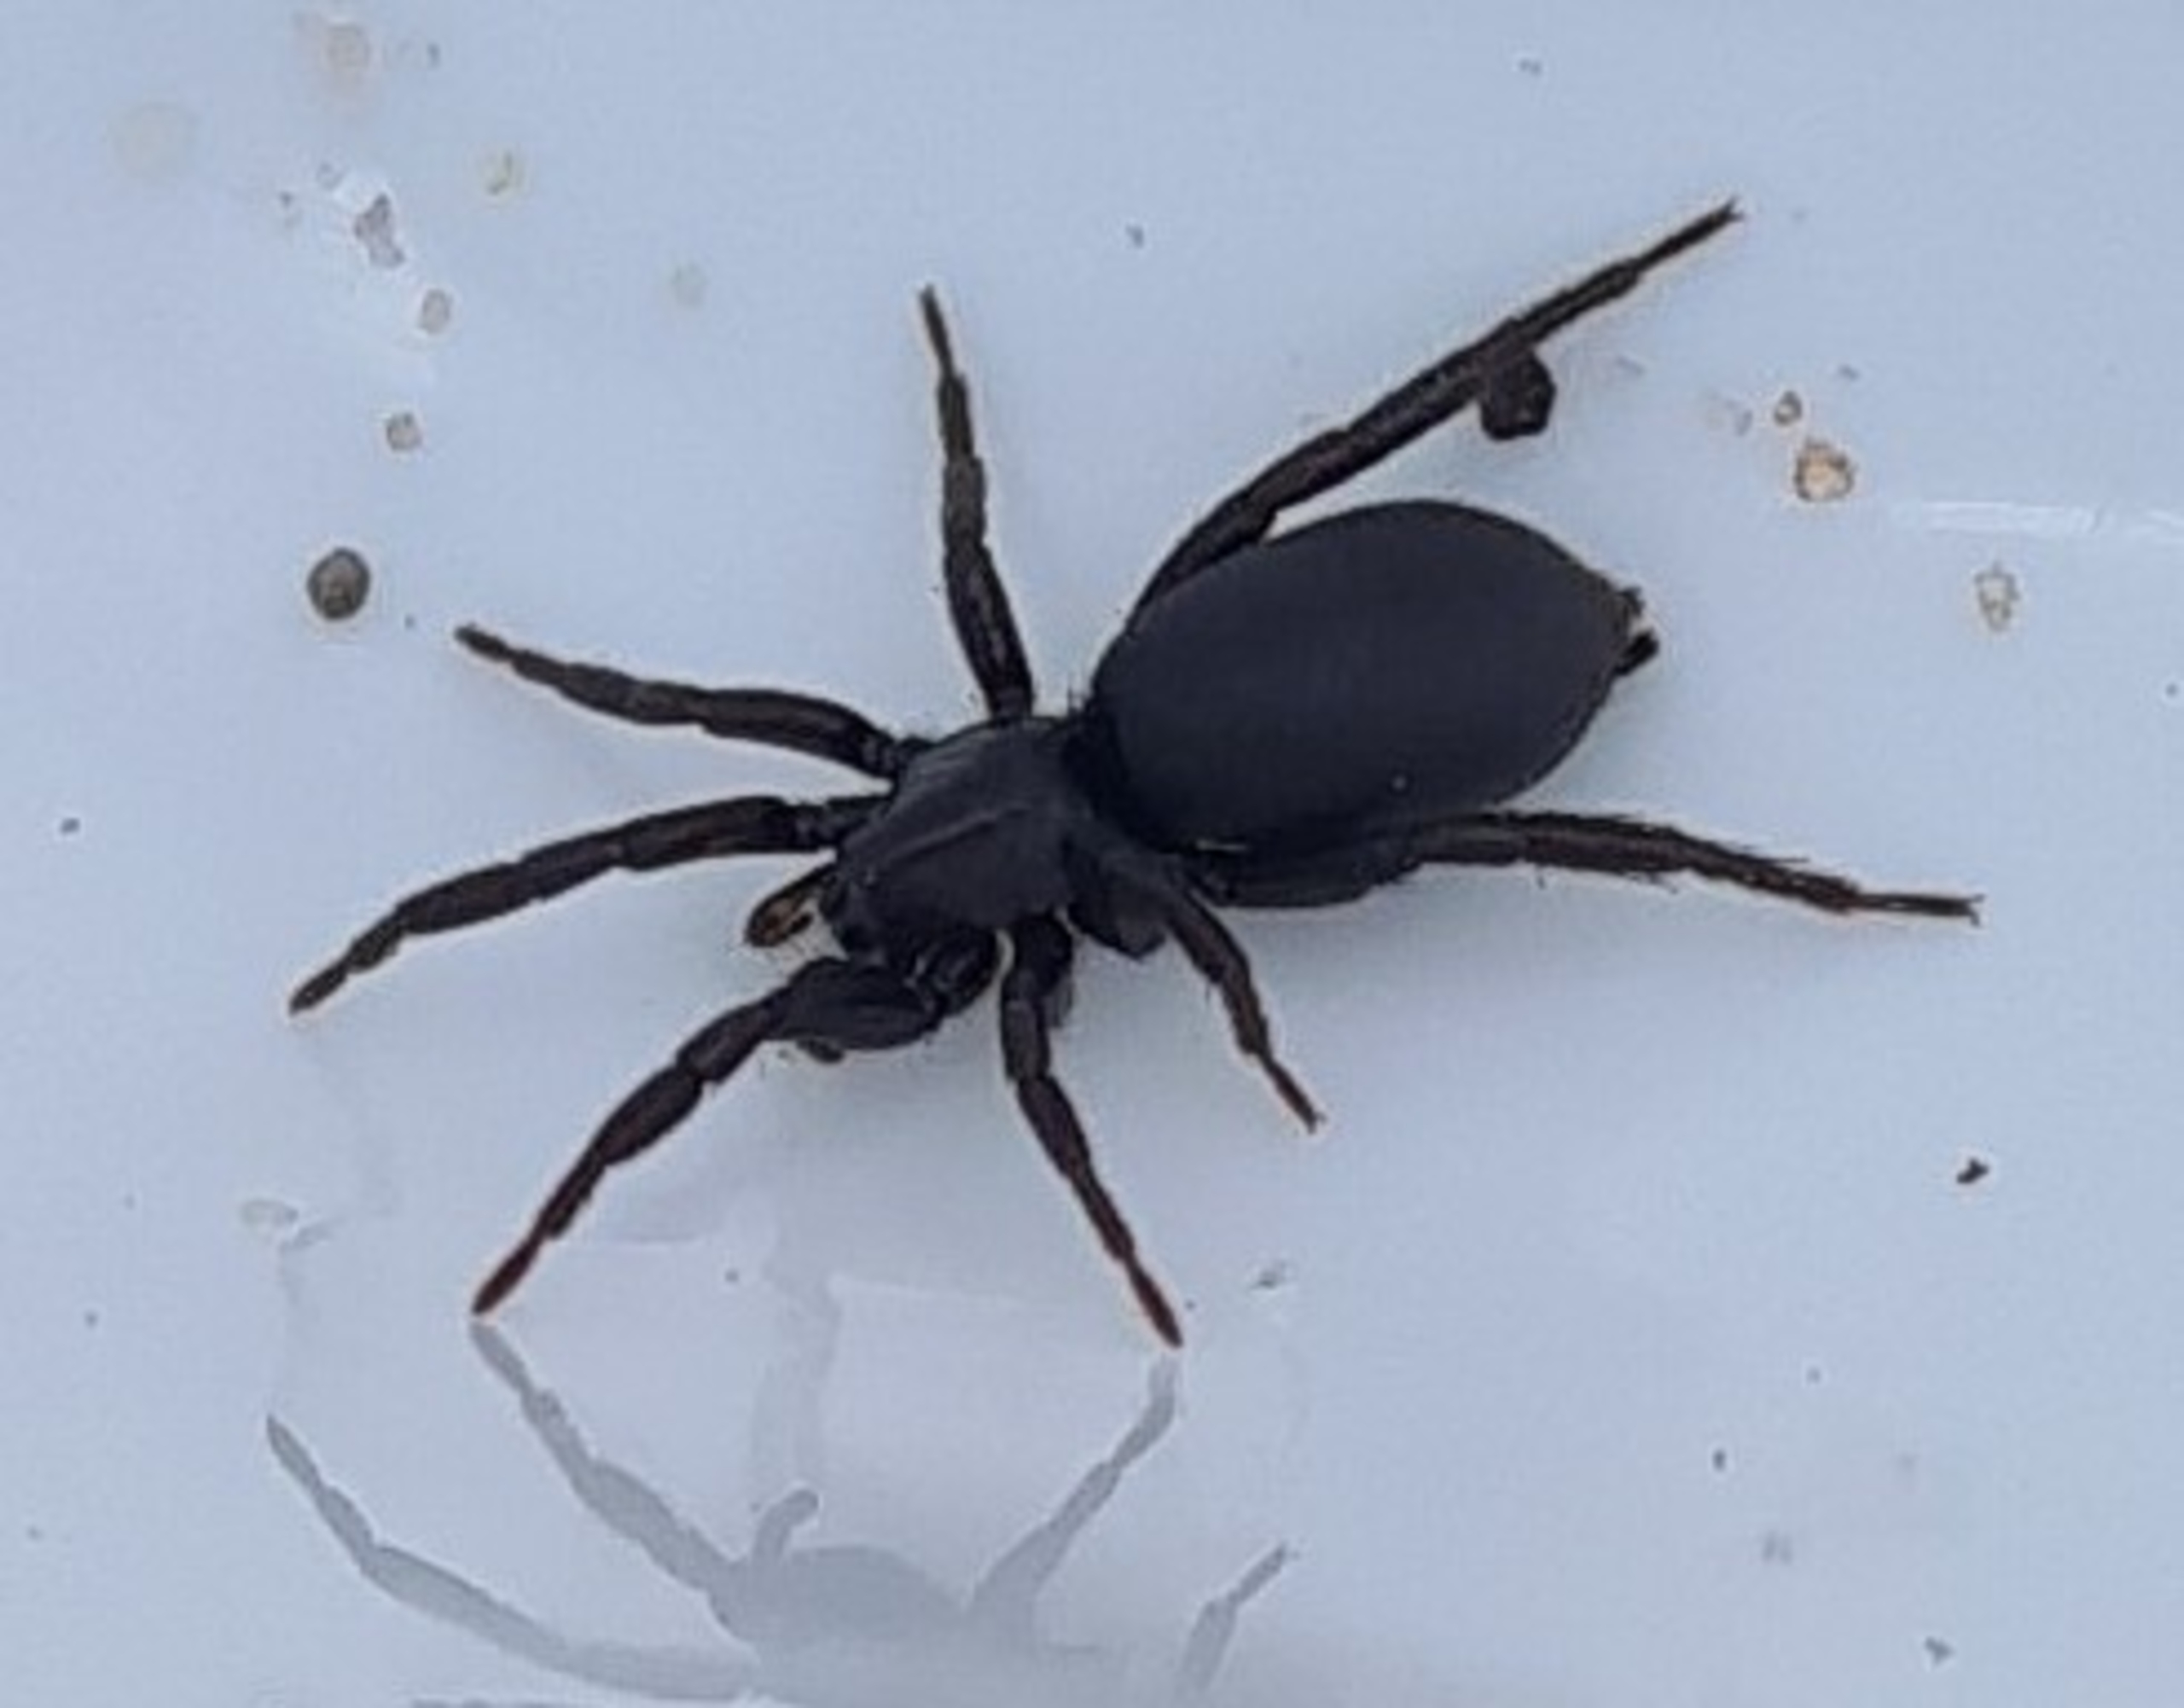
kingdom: Animalia
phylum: Arthropoda
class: Arachnida
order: Araneae
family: Gnaphosidae
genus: Zelotes
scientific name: Zelotes
